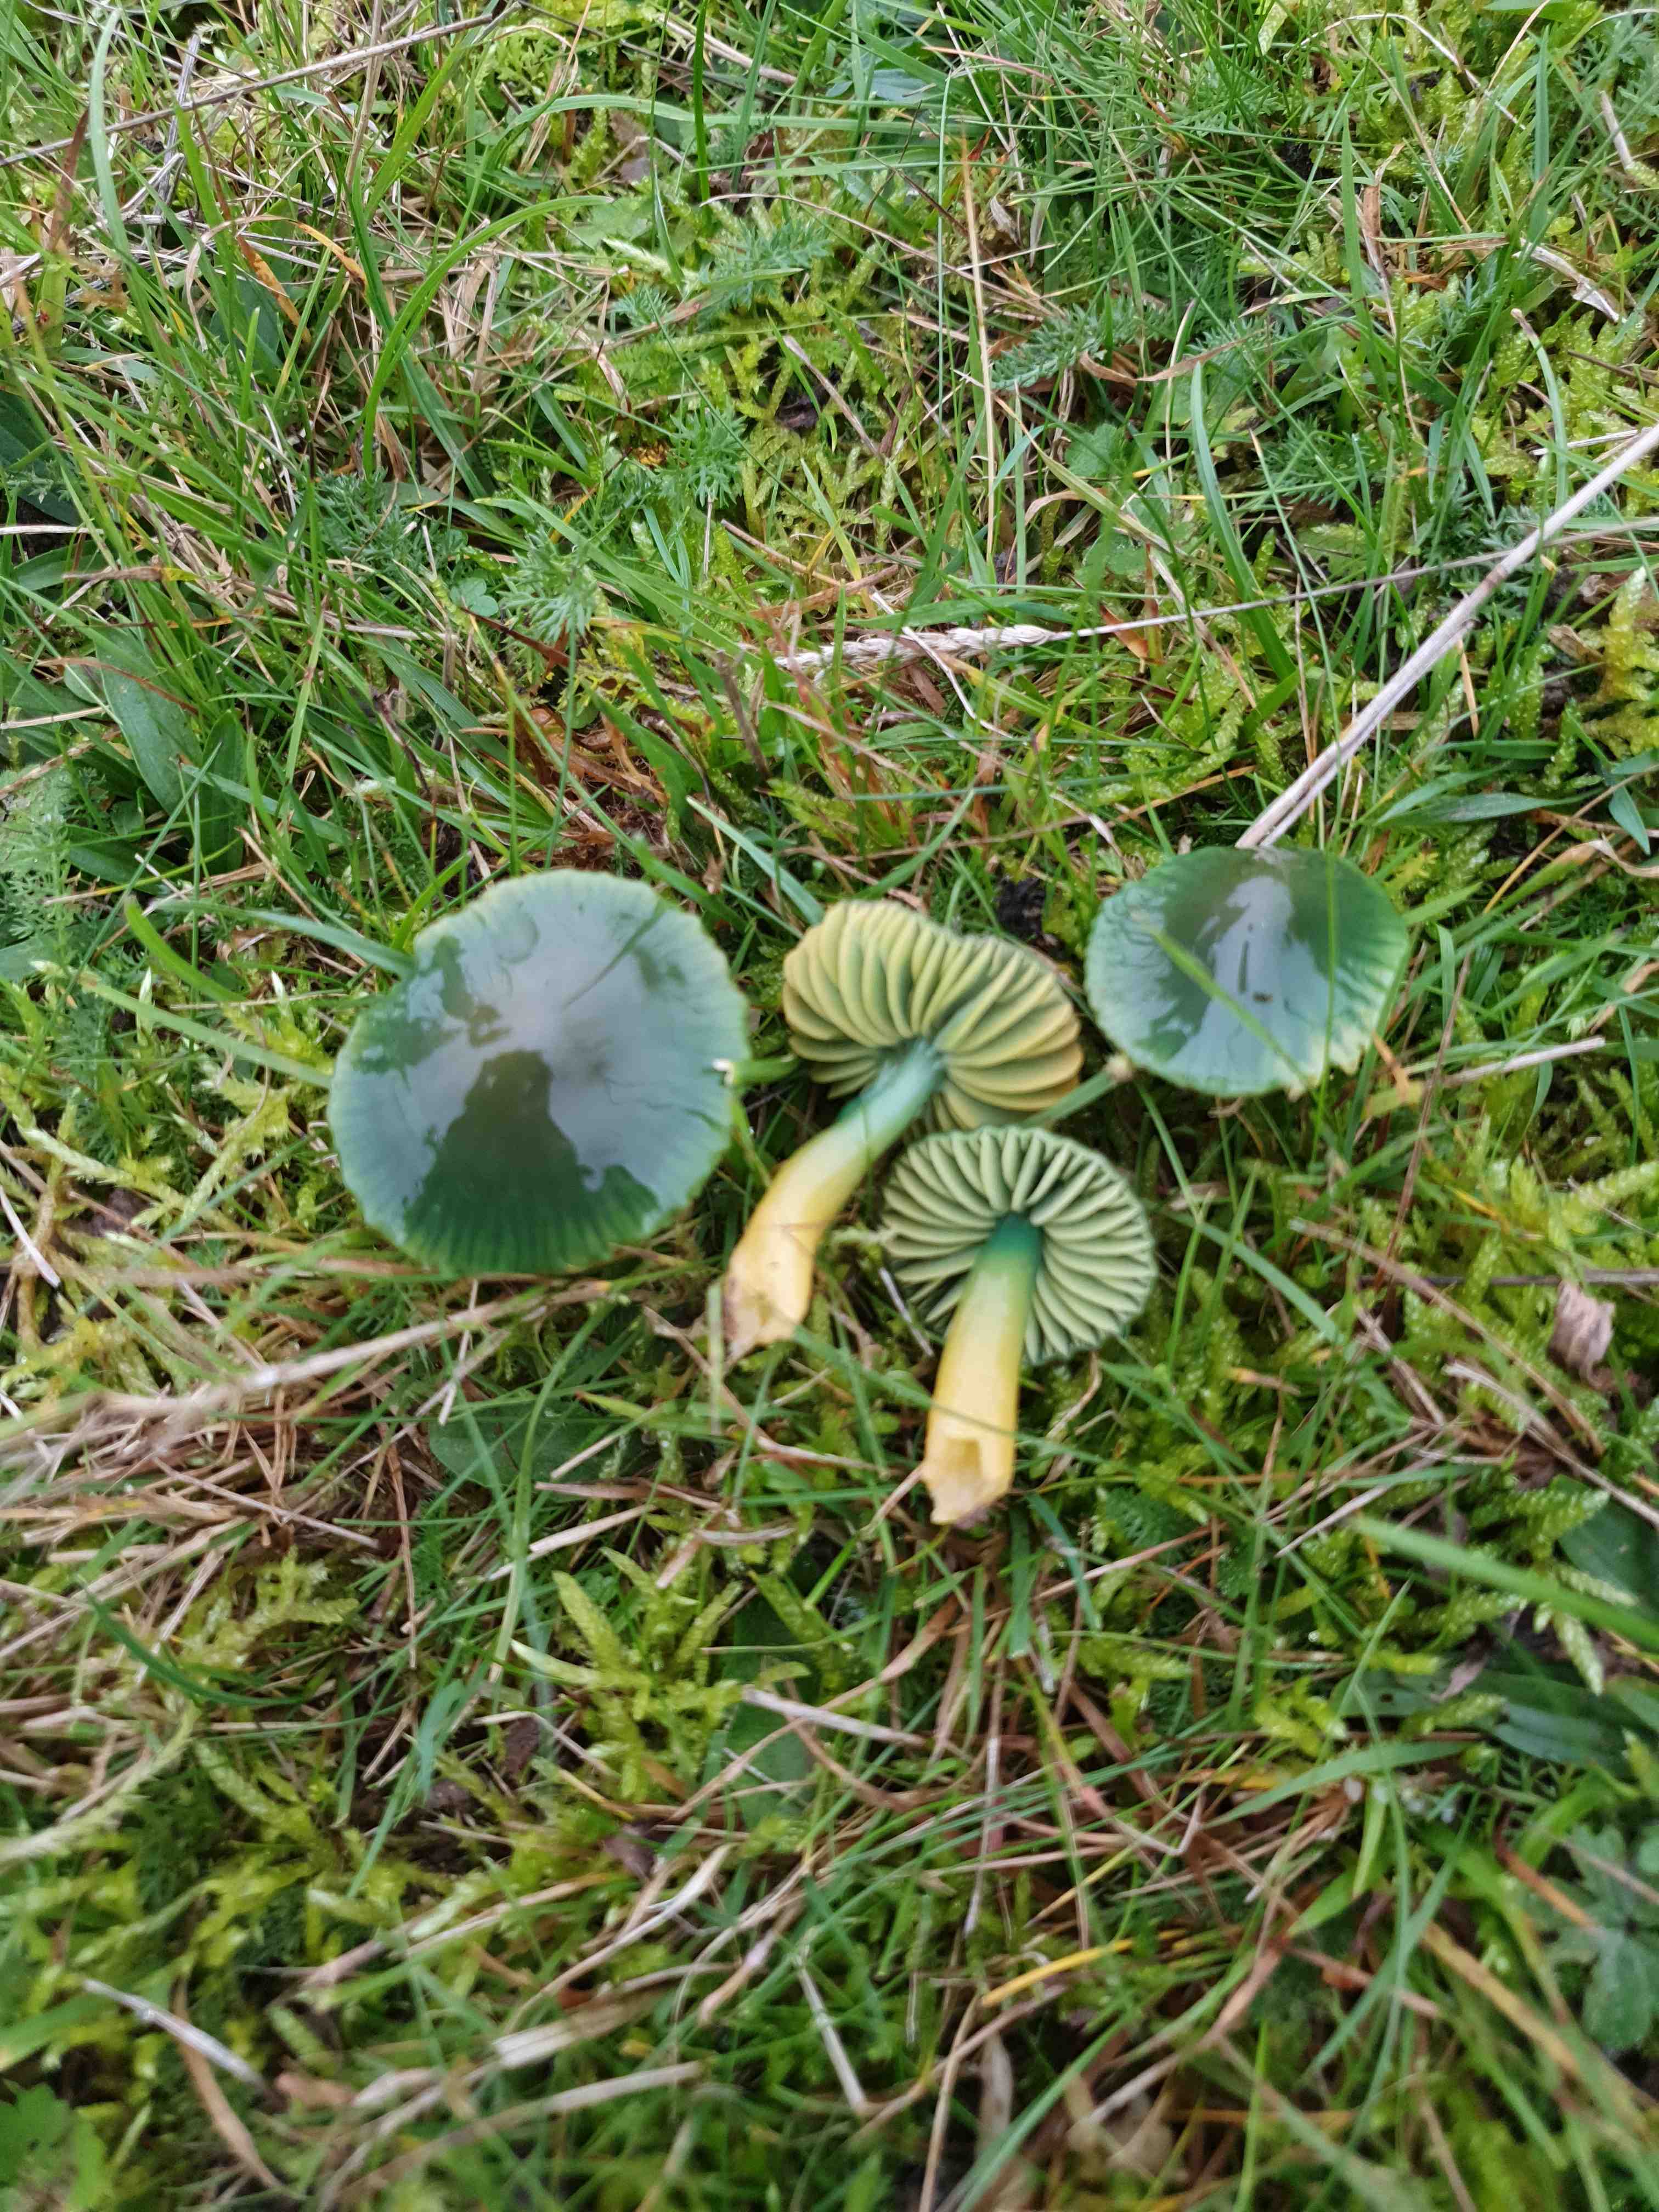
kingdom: Fungi
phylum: Basidiomycota
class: Agaricomycetes
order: Agaricales
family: Hygrophoraceae
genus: Gliophorus
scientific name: Gliophorus psittacinus
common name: papegøje-vokshat
